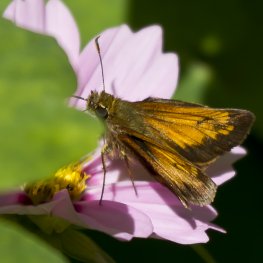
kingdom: Animalia
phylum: Arthropoda
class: Insecta
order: Lepidoptera
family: Hesperiidae
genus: Lon
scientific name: Lon hobomok
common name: Hobomok Skipper
